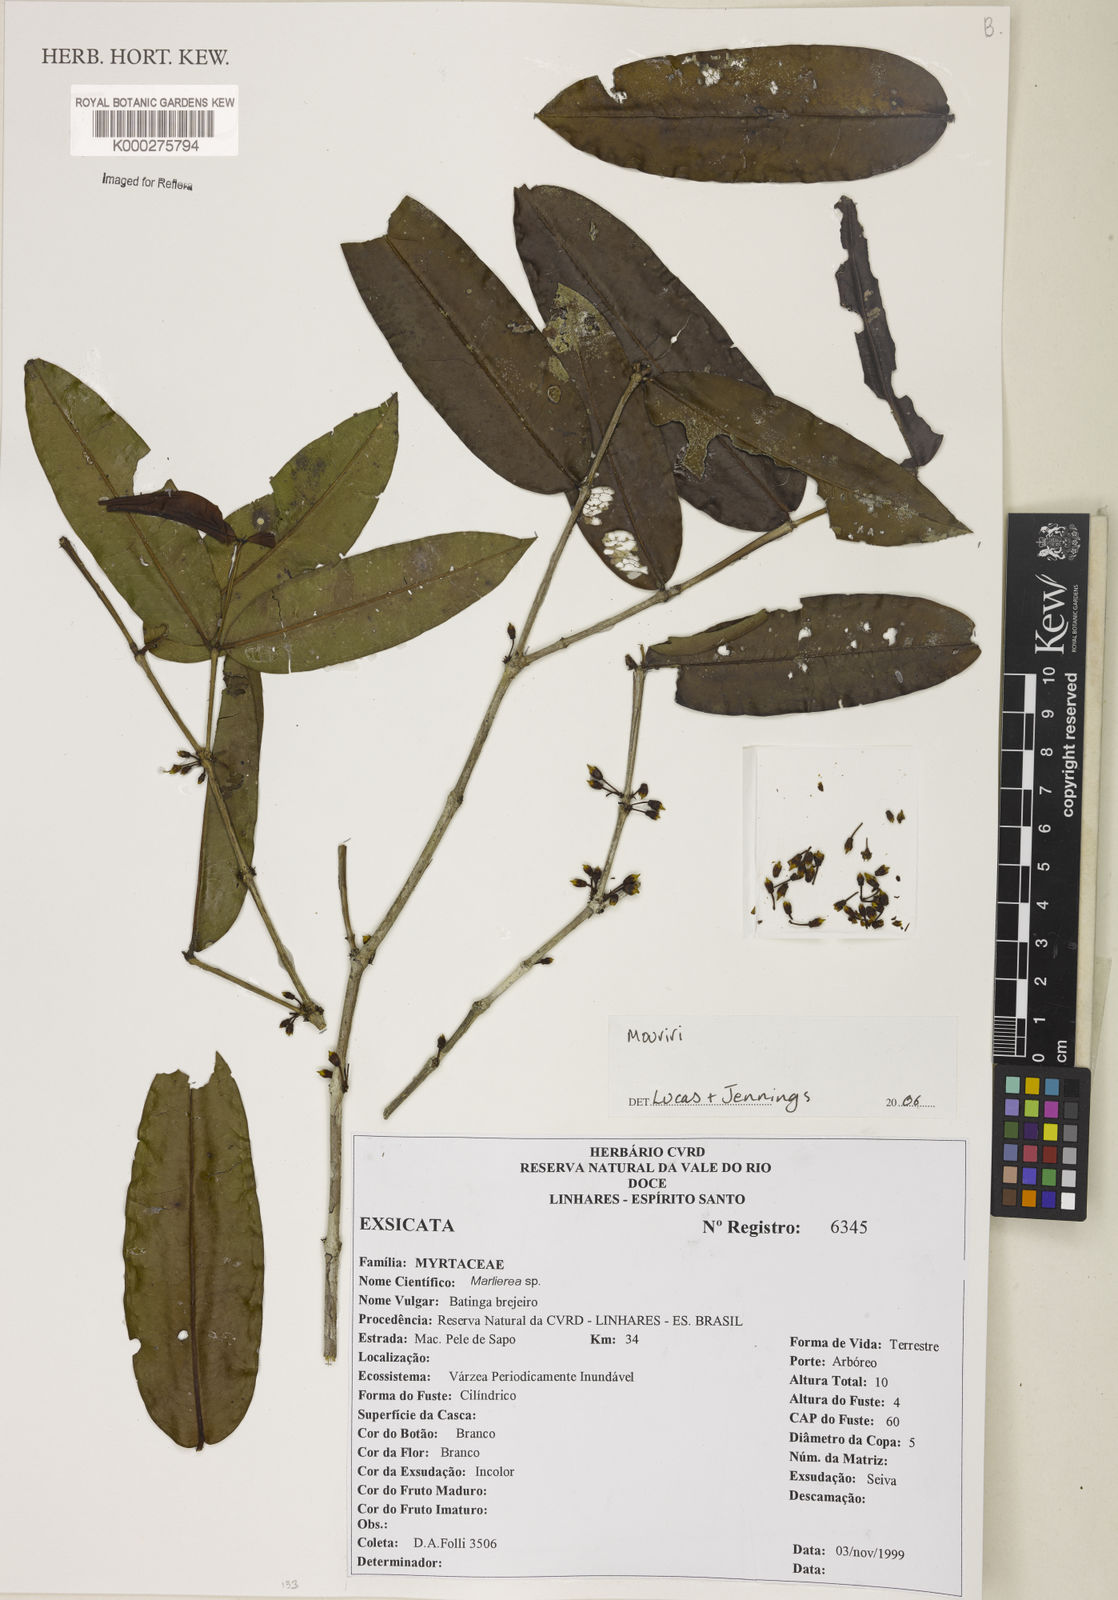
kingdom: Plantae
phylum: Tracheophyta
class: Magnoliopsida
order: Myrtales
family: Melastomataceae
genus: Mouriri
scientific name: Mouriri
